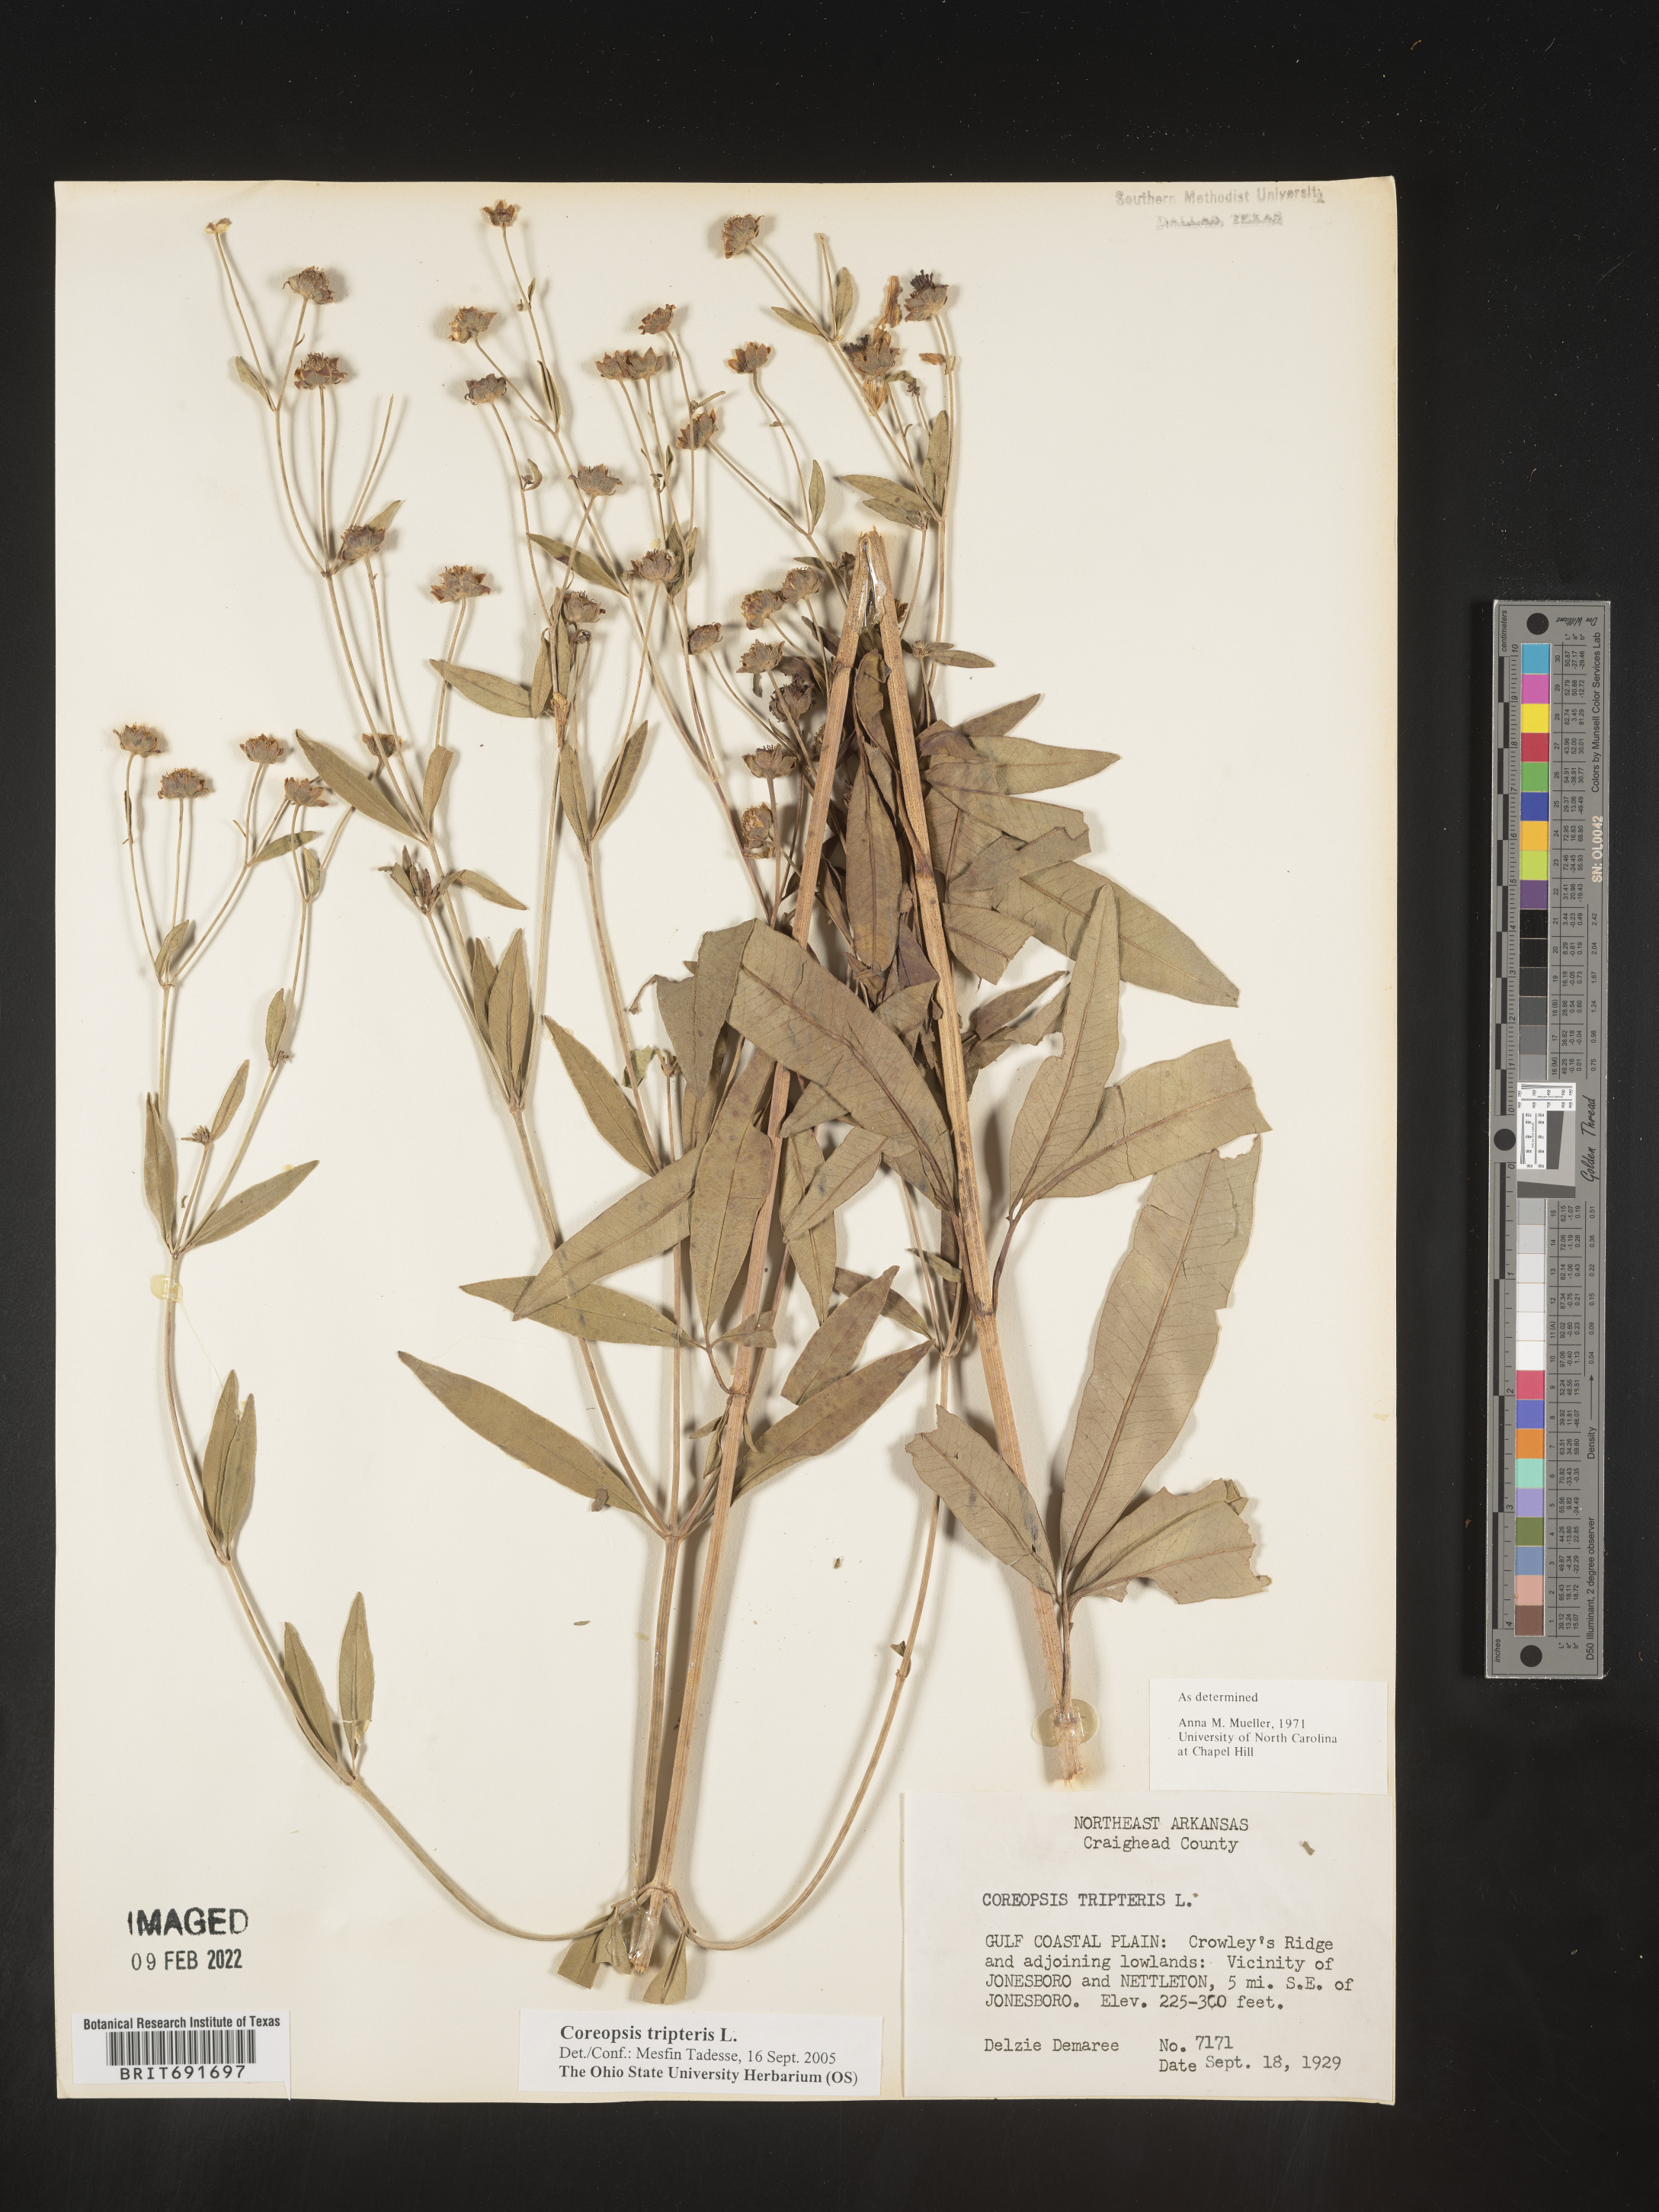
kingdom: Plantae
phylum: Tracheophyta
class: Magnoliopsida
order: Asterales
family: Asteraceae
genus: Coreopsis
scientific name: Coreopsis tripteris
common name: Tall coreopsis
